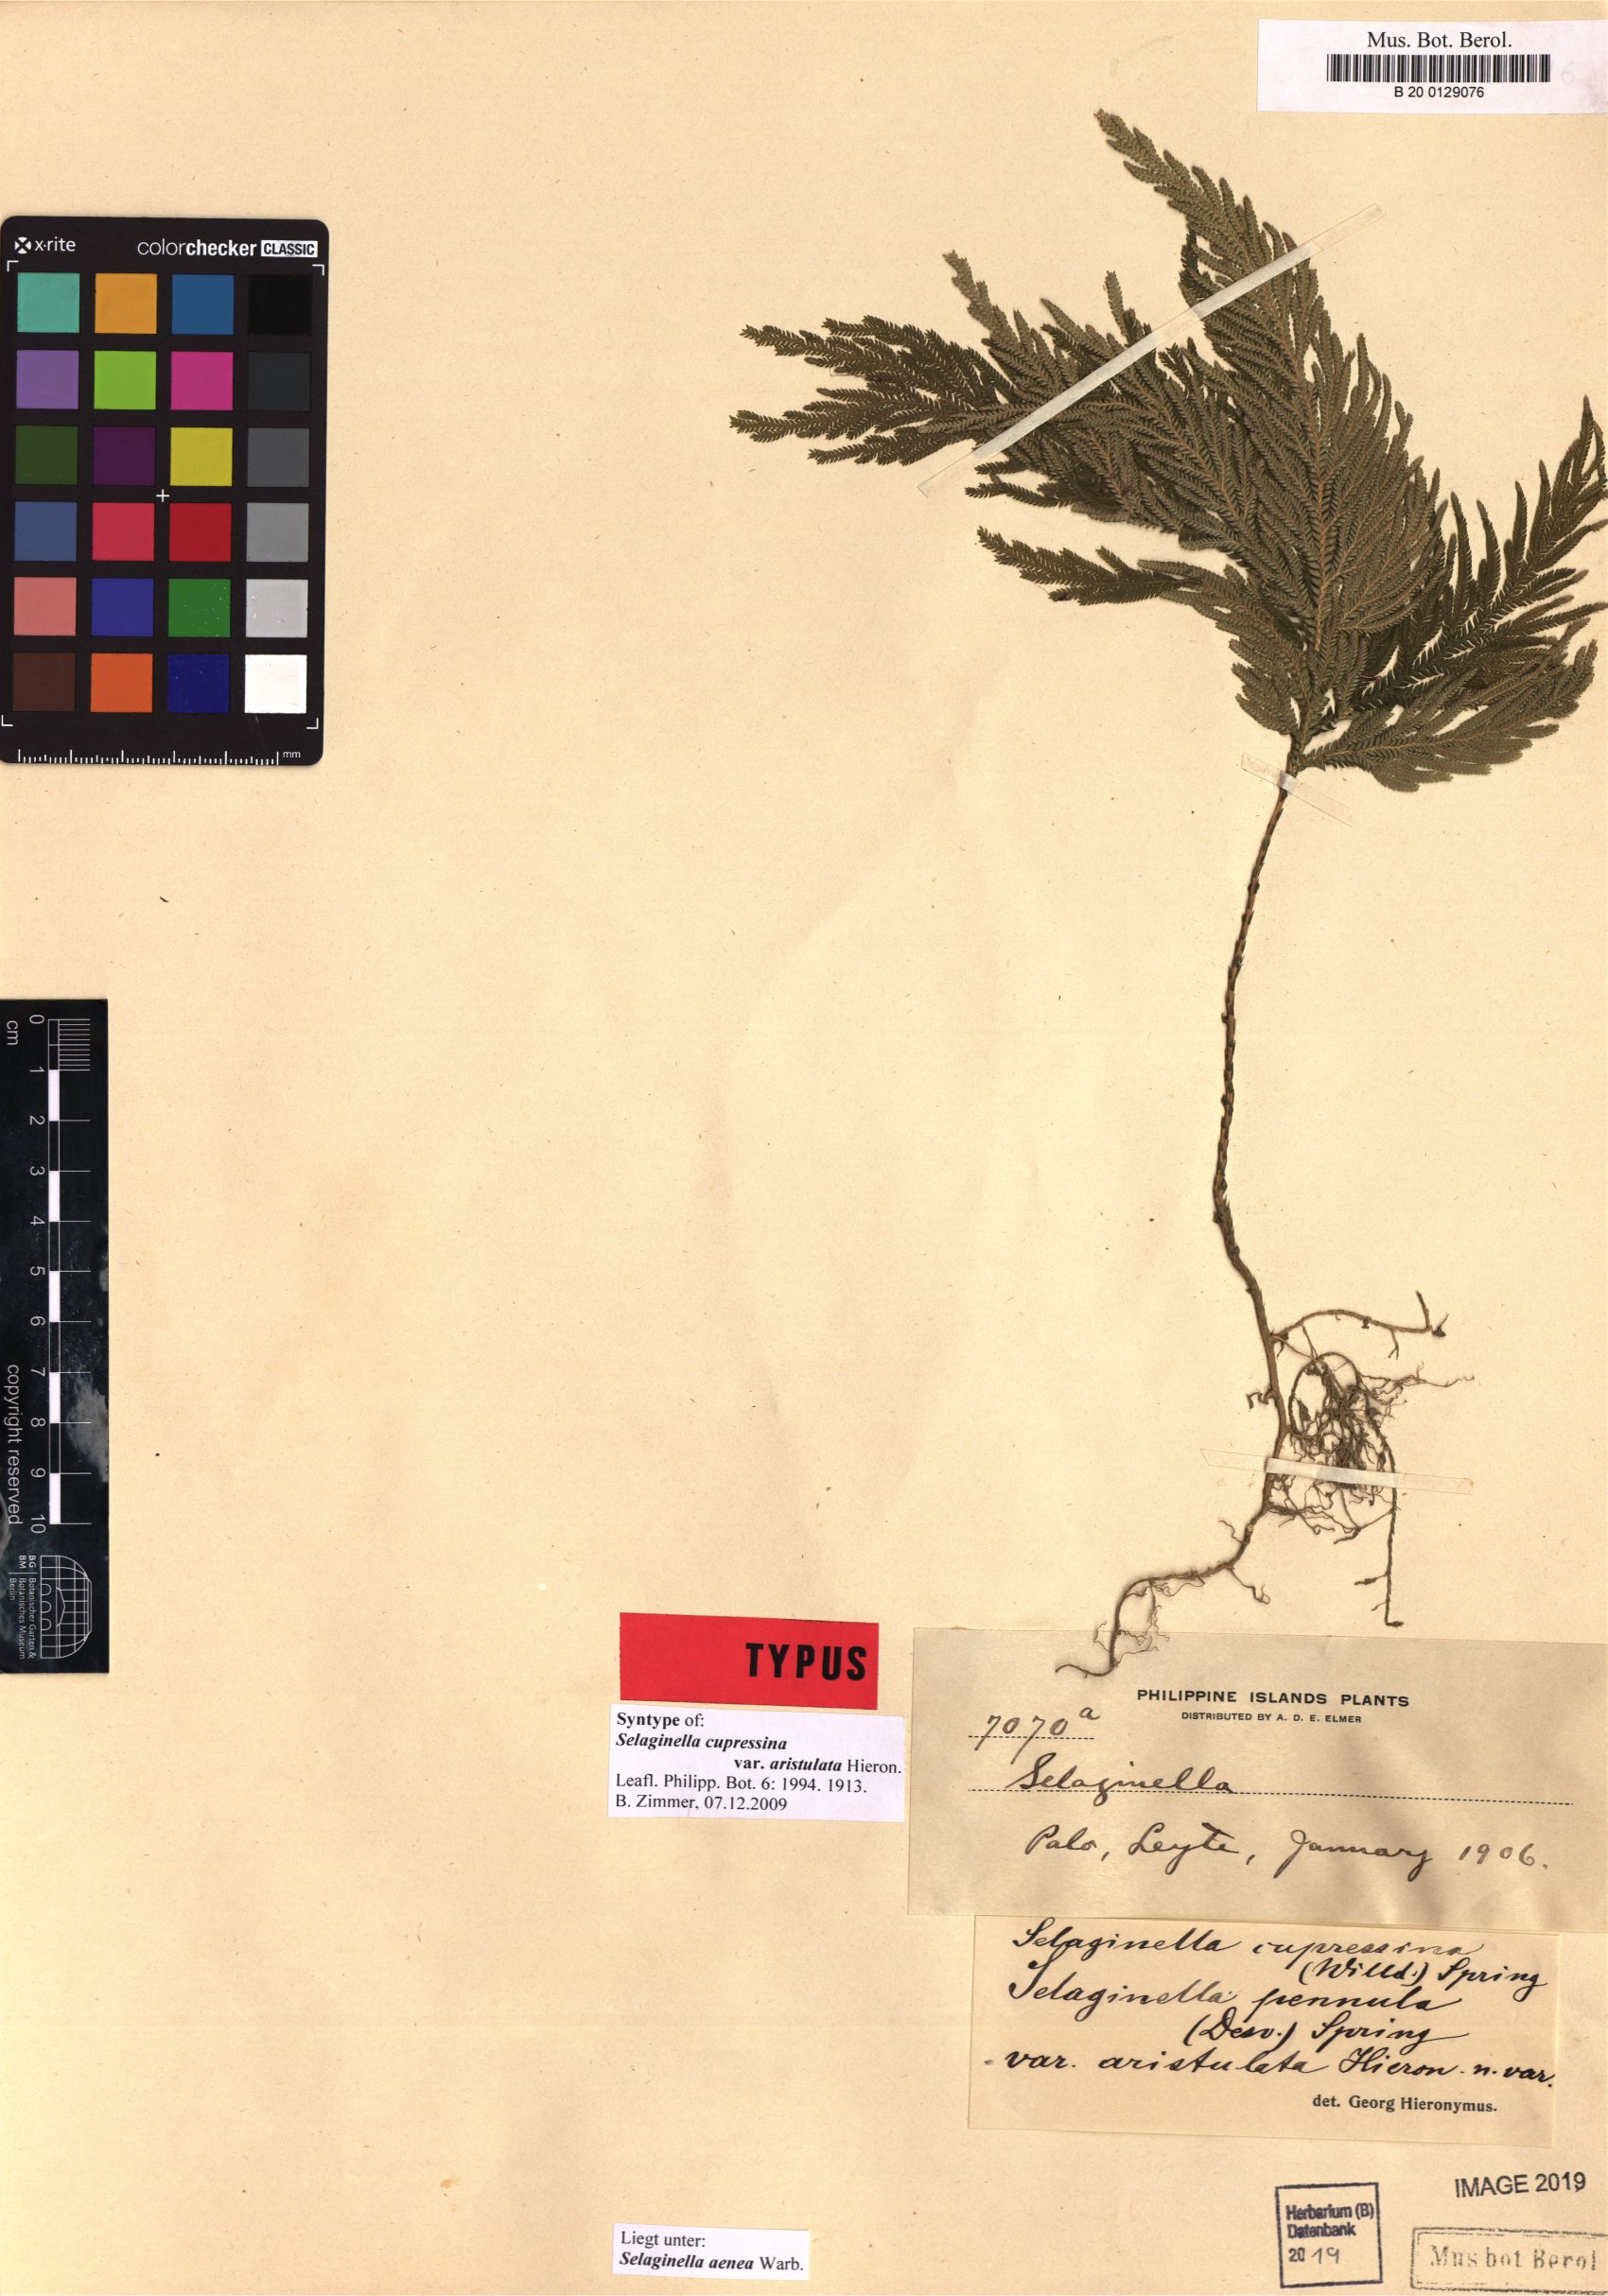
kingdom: Plantae
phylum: Tracheophyta
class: Lycopodiopsida
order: Selaginellales
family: Selaginellaceae
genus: Selaginella
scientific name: Selaginella aenea
